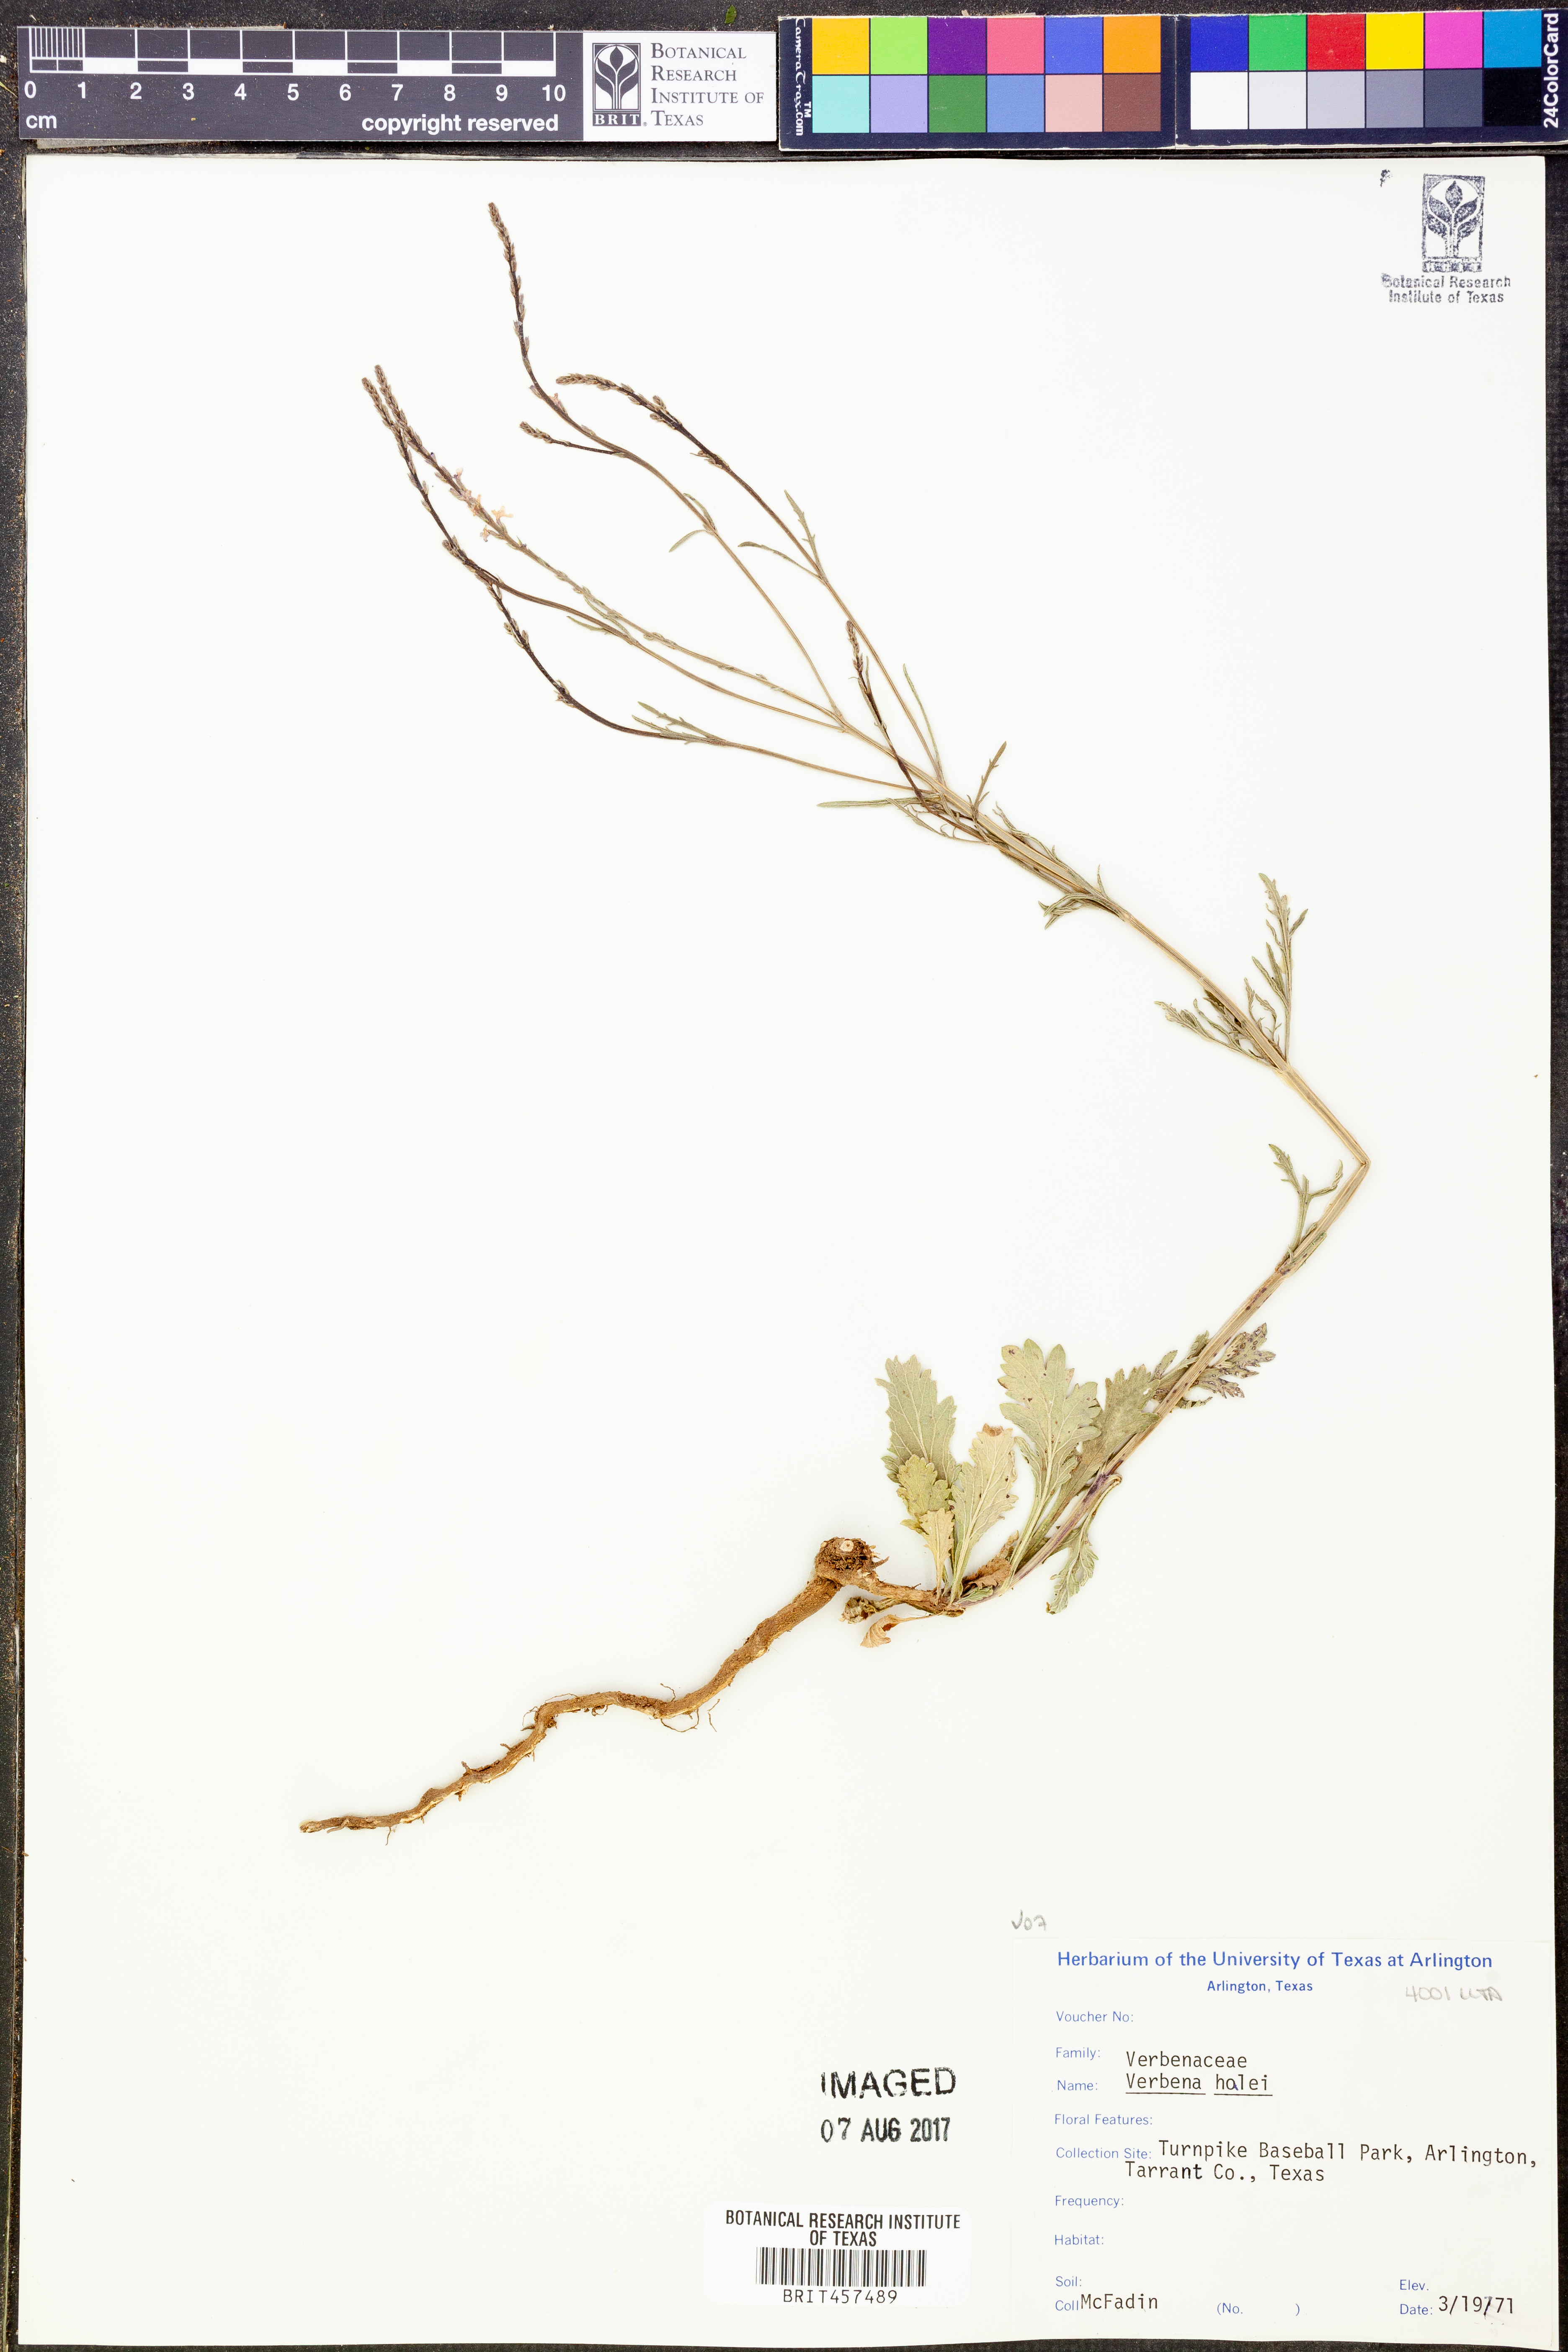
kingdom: Plantae
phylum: Tracheophyta
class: Magnoliopsida
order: Lamiales
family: Verbenaceae
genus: Verbena
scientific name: Verbena halei
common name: Texas vervain
